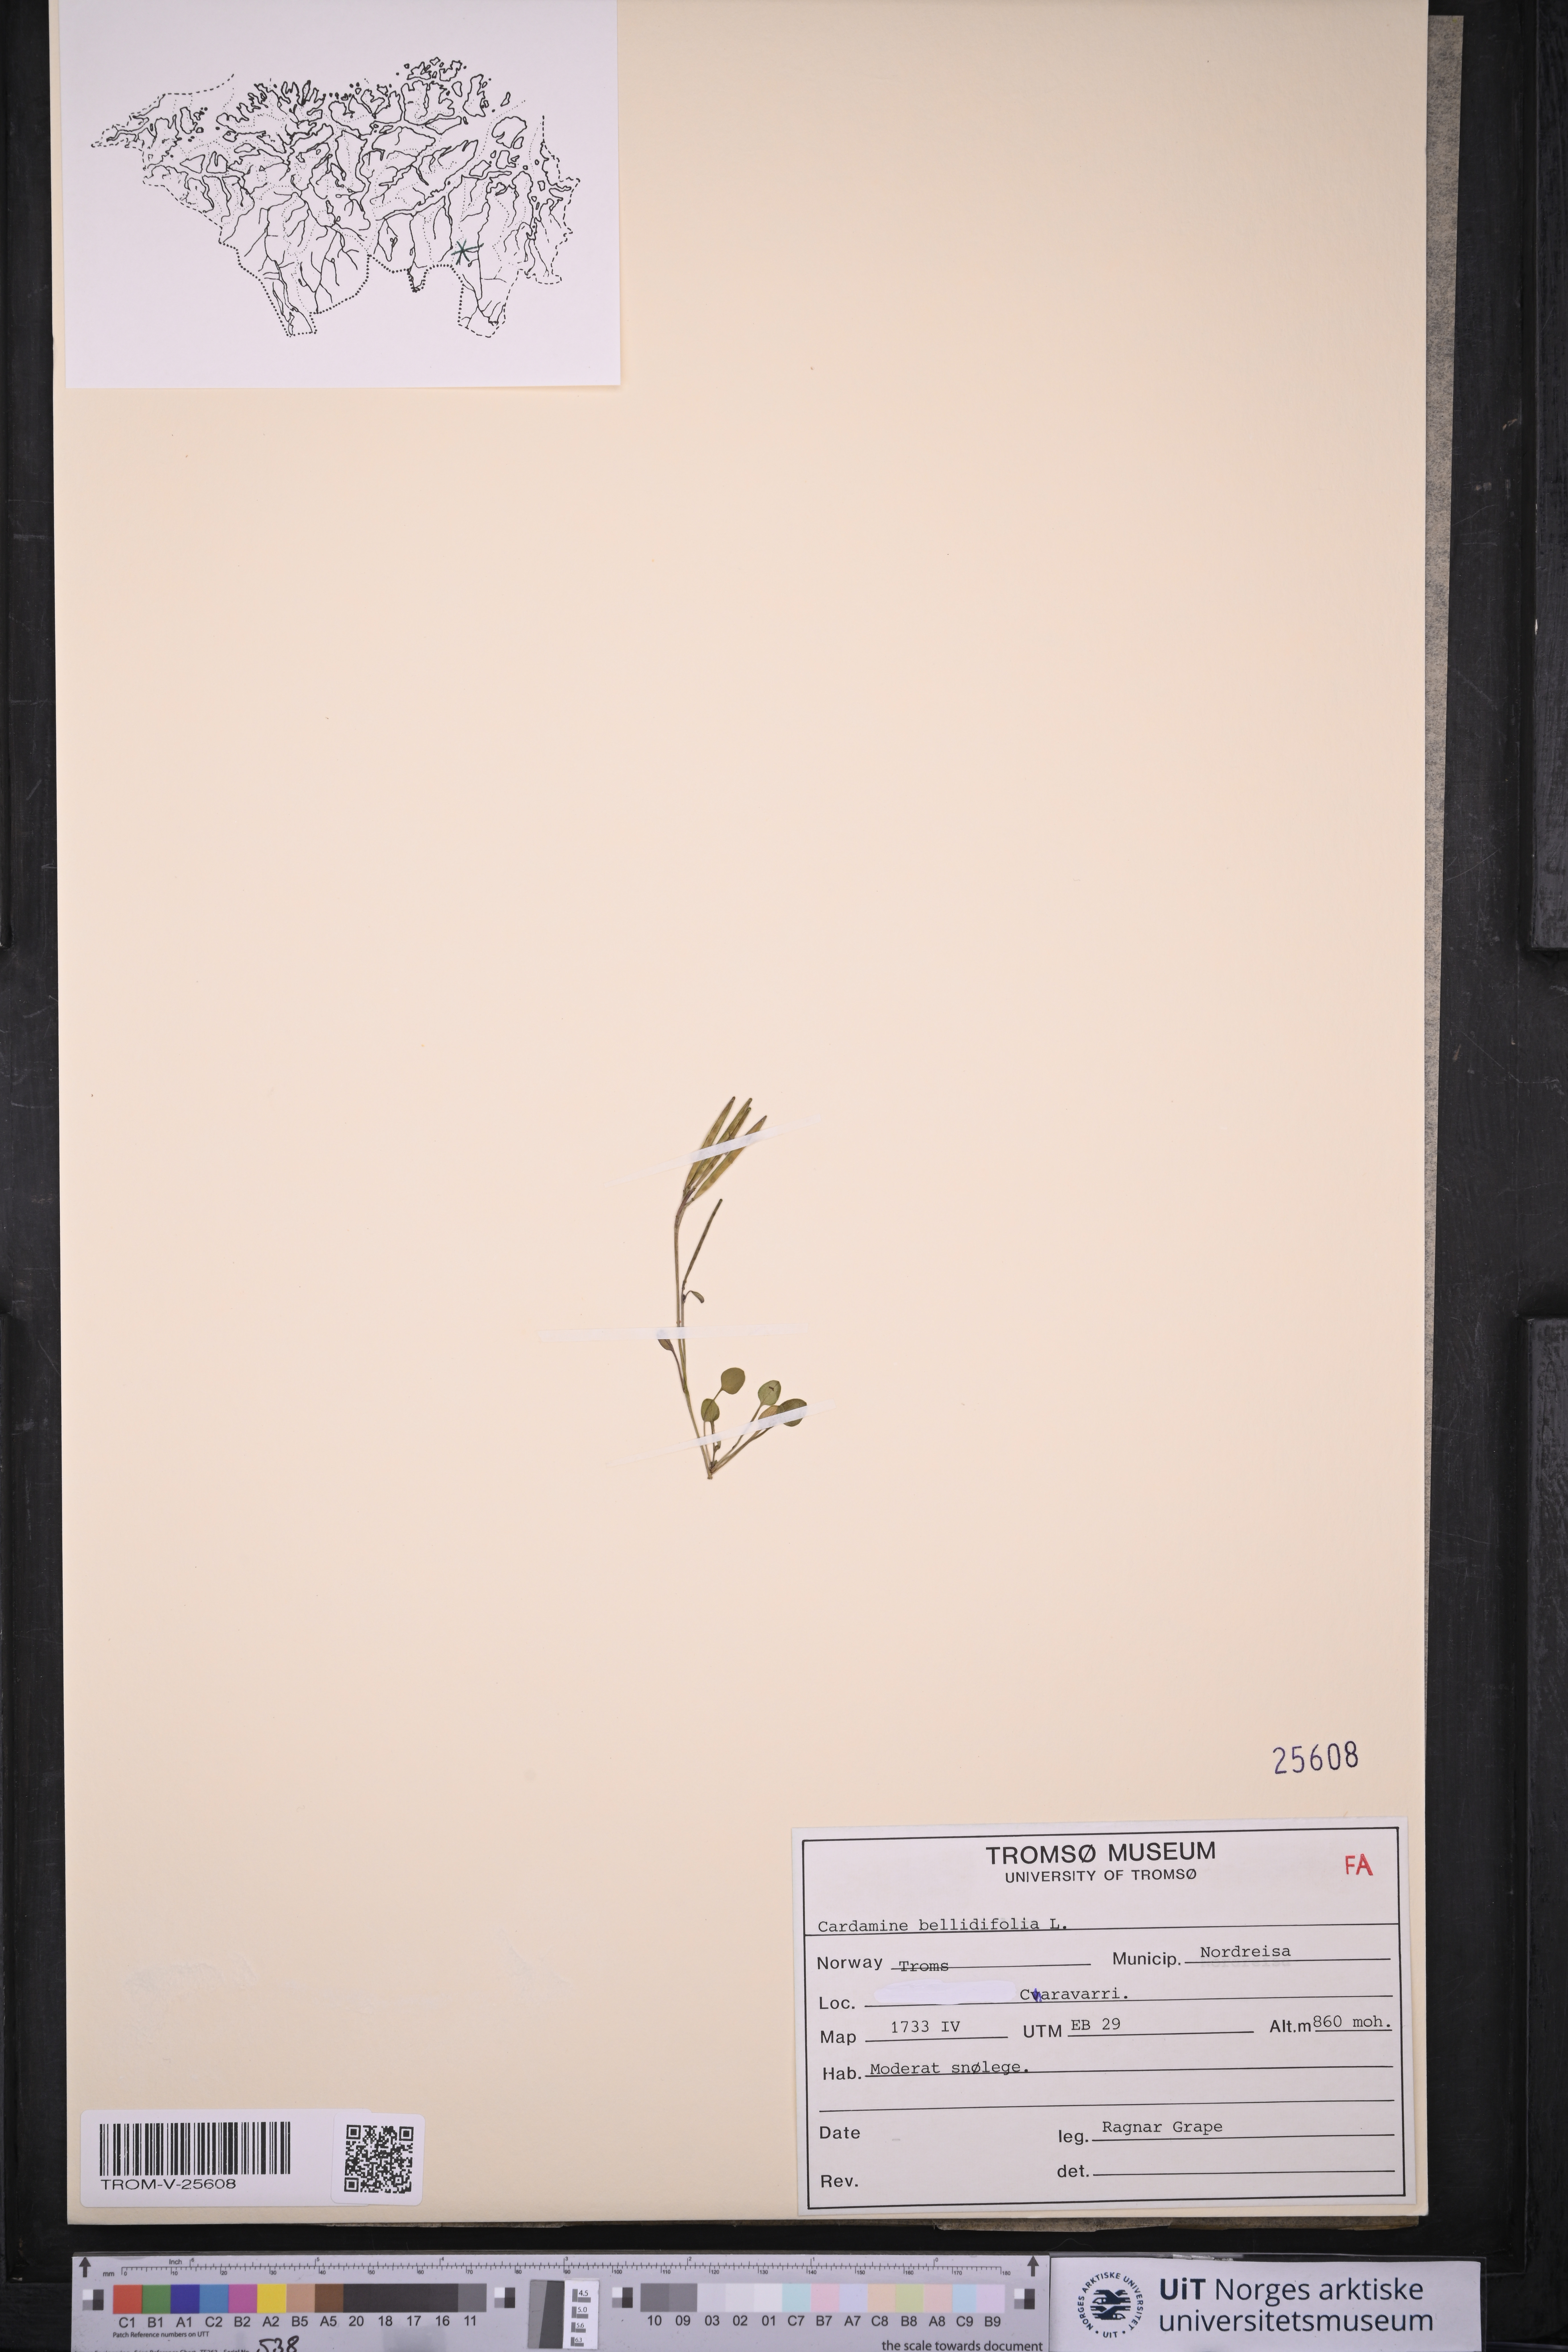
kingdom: Plantae
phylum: Tracheophyta
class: Magnoliopsida
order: Brassicales
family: Brassicaceae
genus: Cardamine
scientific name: Cardamine bellidifolia
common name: Alpine bittercress
